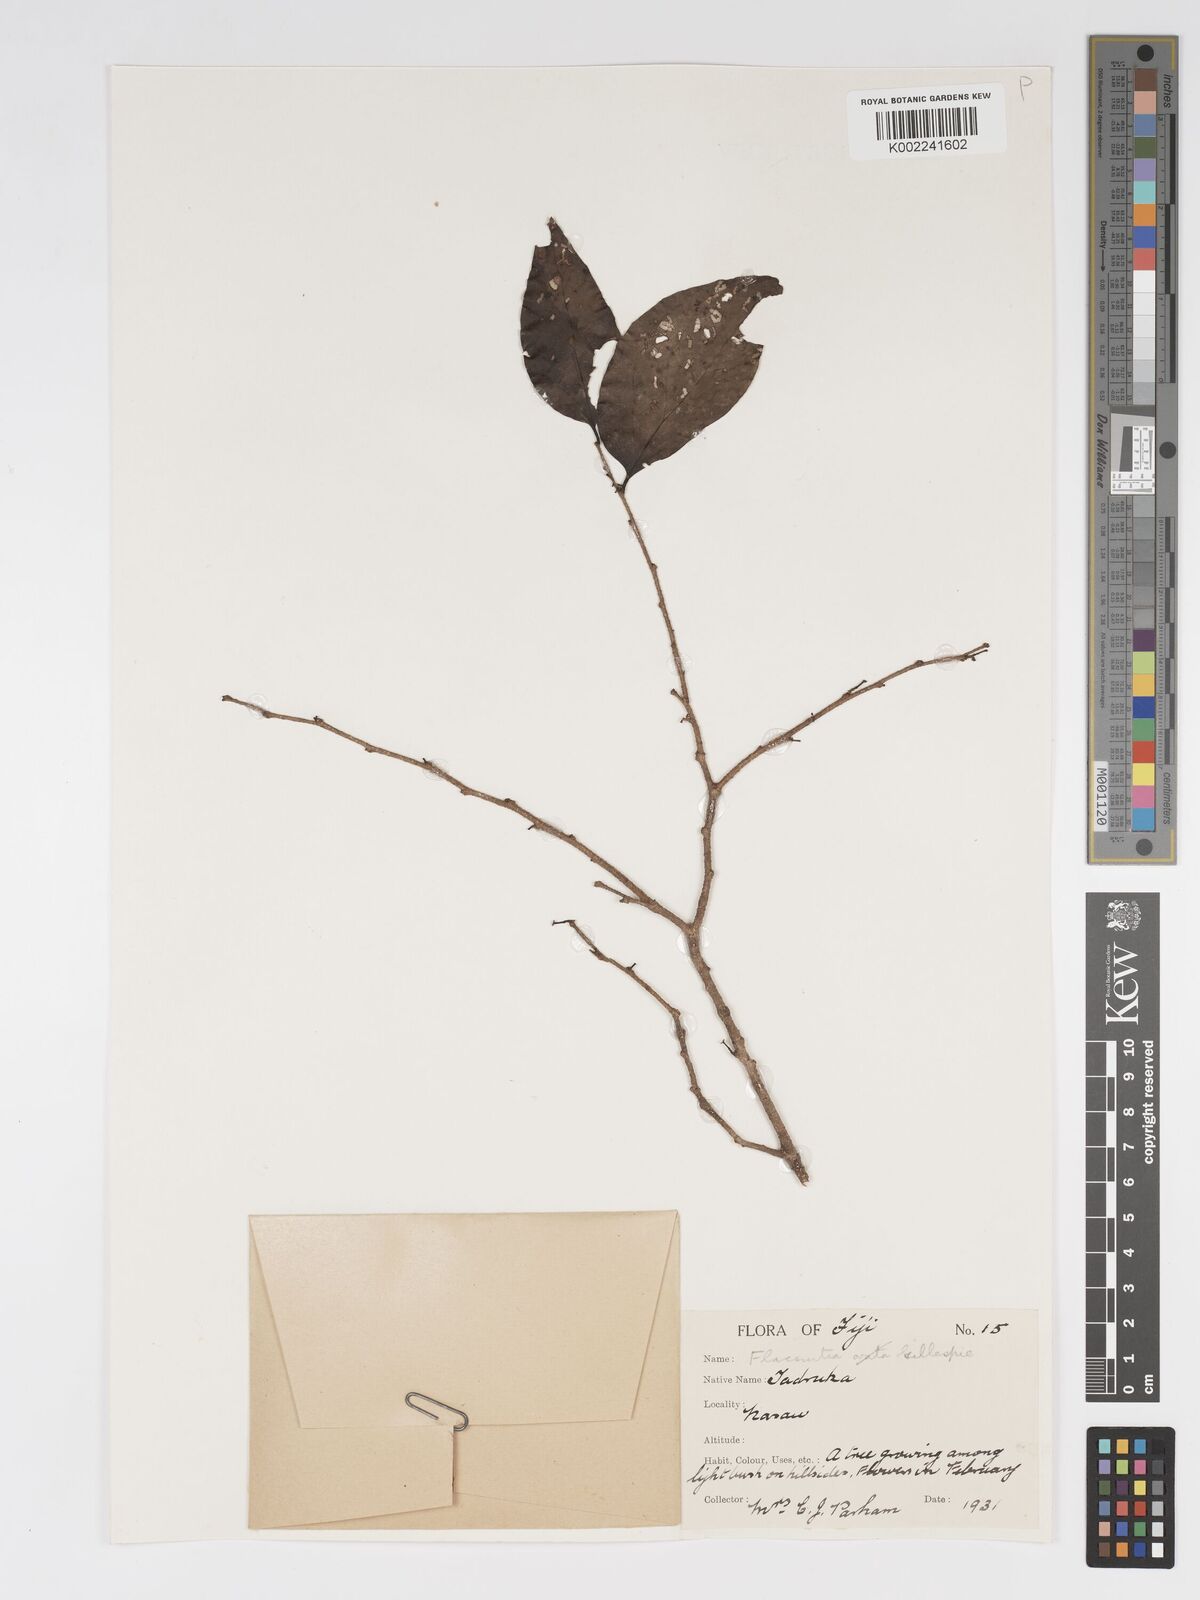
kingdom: Plantae
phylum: Tracheophyta
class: Magnoliopsida
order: Malpighiales
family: Salicaceae
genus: Flacourtia
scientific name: Flacourtia vitiensis
